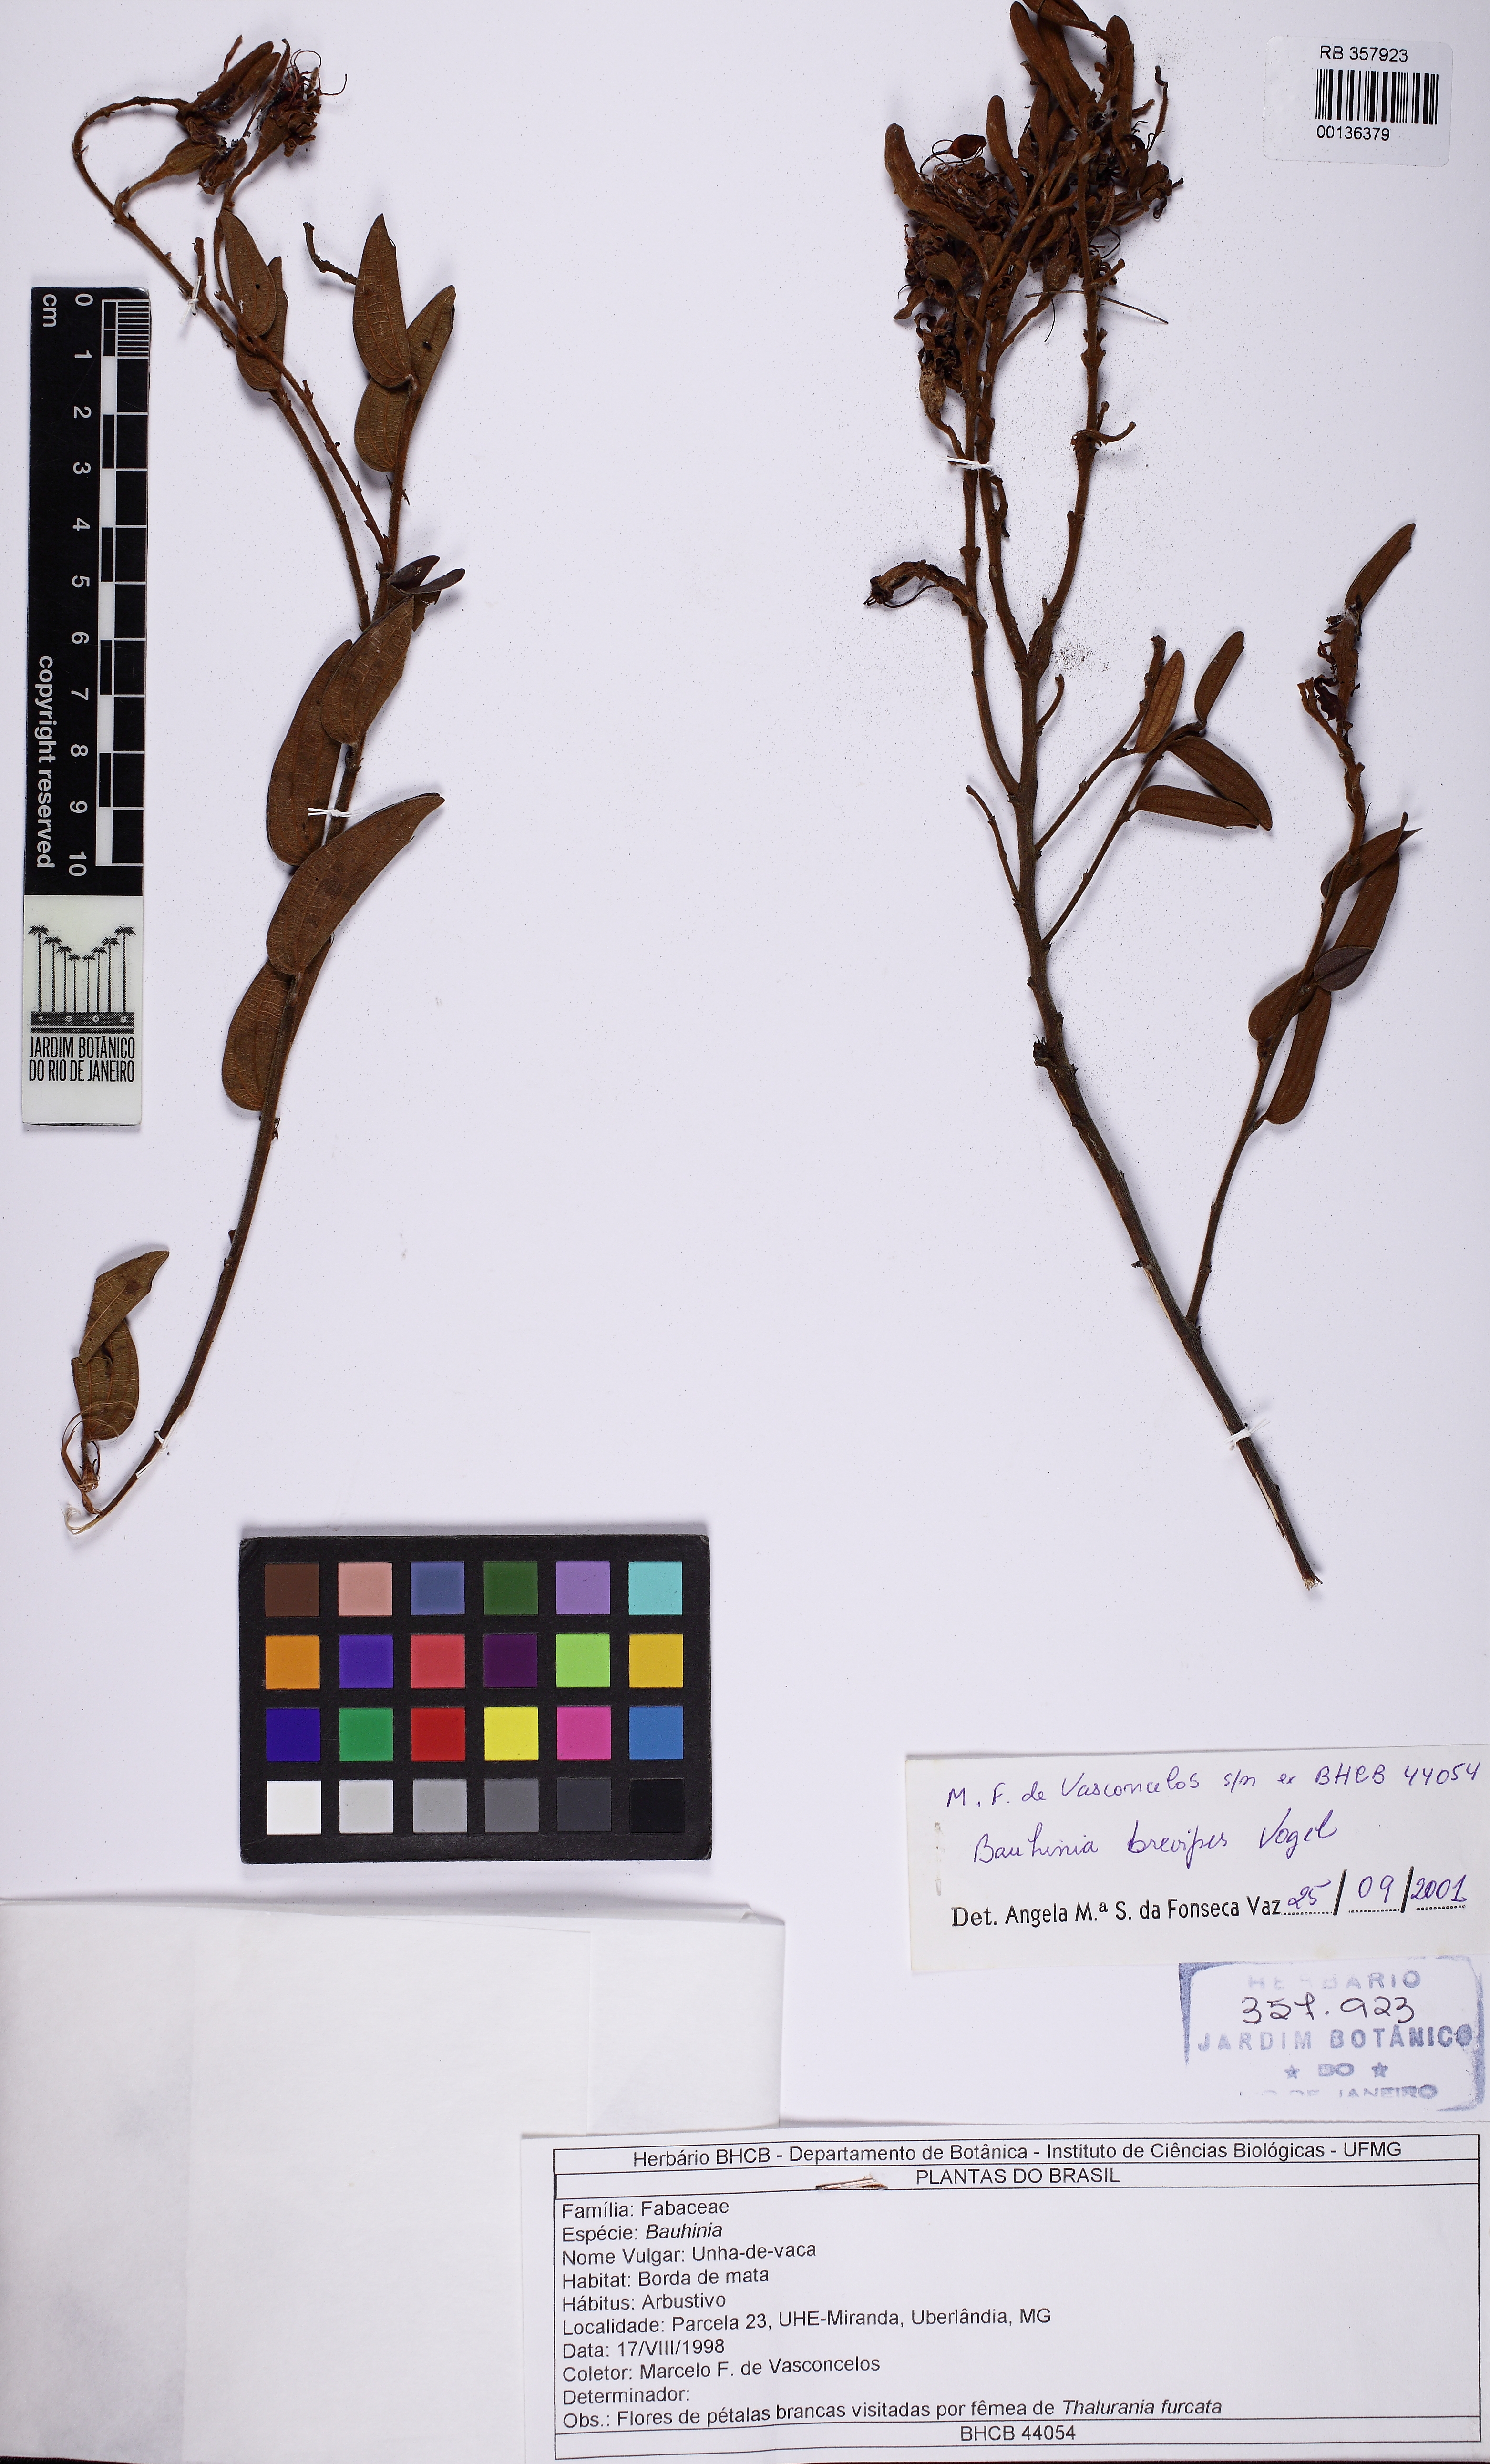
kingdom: Plantae
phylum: Tracheophyta
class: Magnoliopsida
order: Fabales
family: Fabaceae
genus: Bauhinia
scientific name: Bauhinia brevipes
